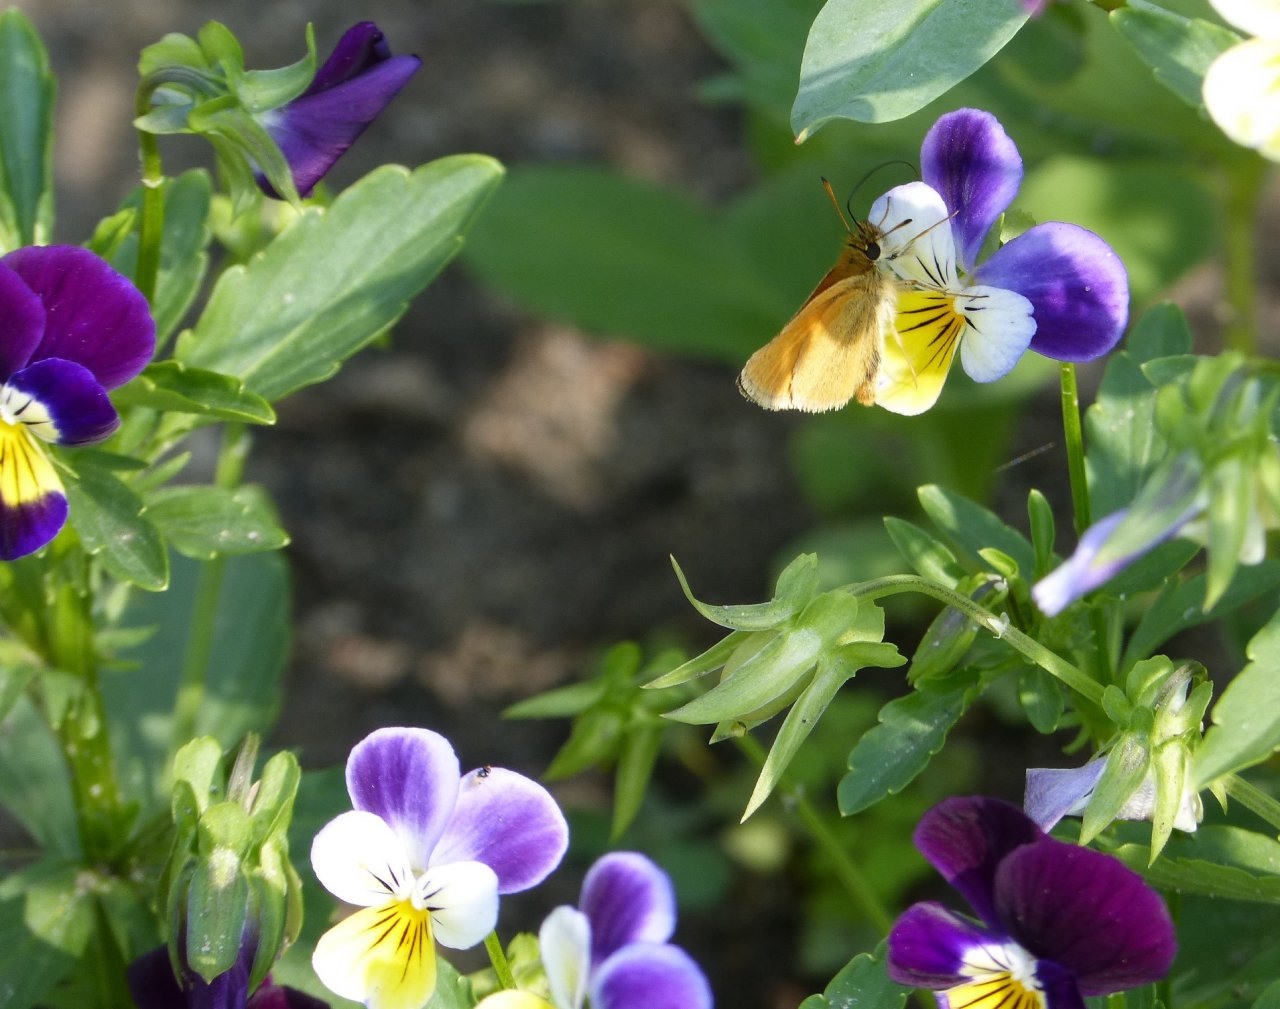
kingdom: Animalia
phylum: Arthropoda
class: Insecta
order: Lepidoptera
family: Hesperiidae
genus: Thymelicus
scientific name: Thymelicus lineola
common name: European Skipper
